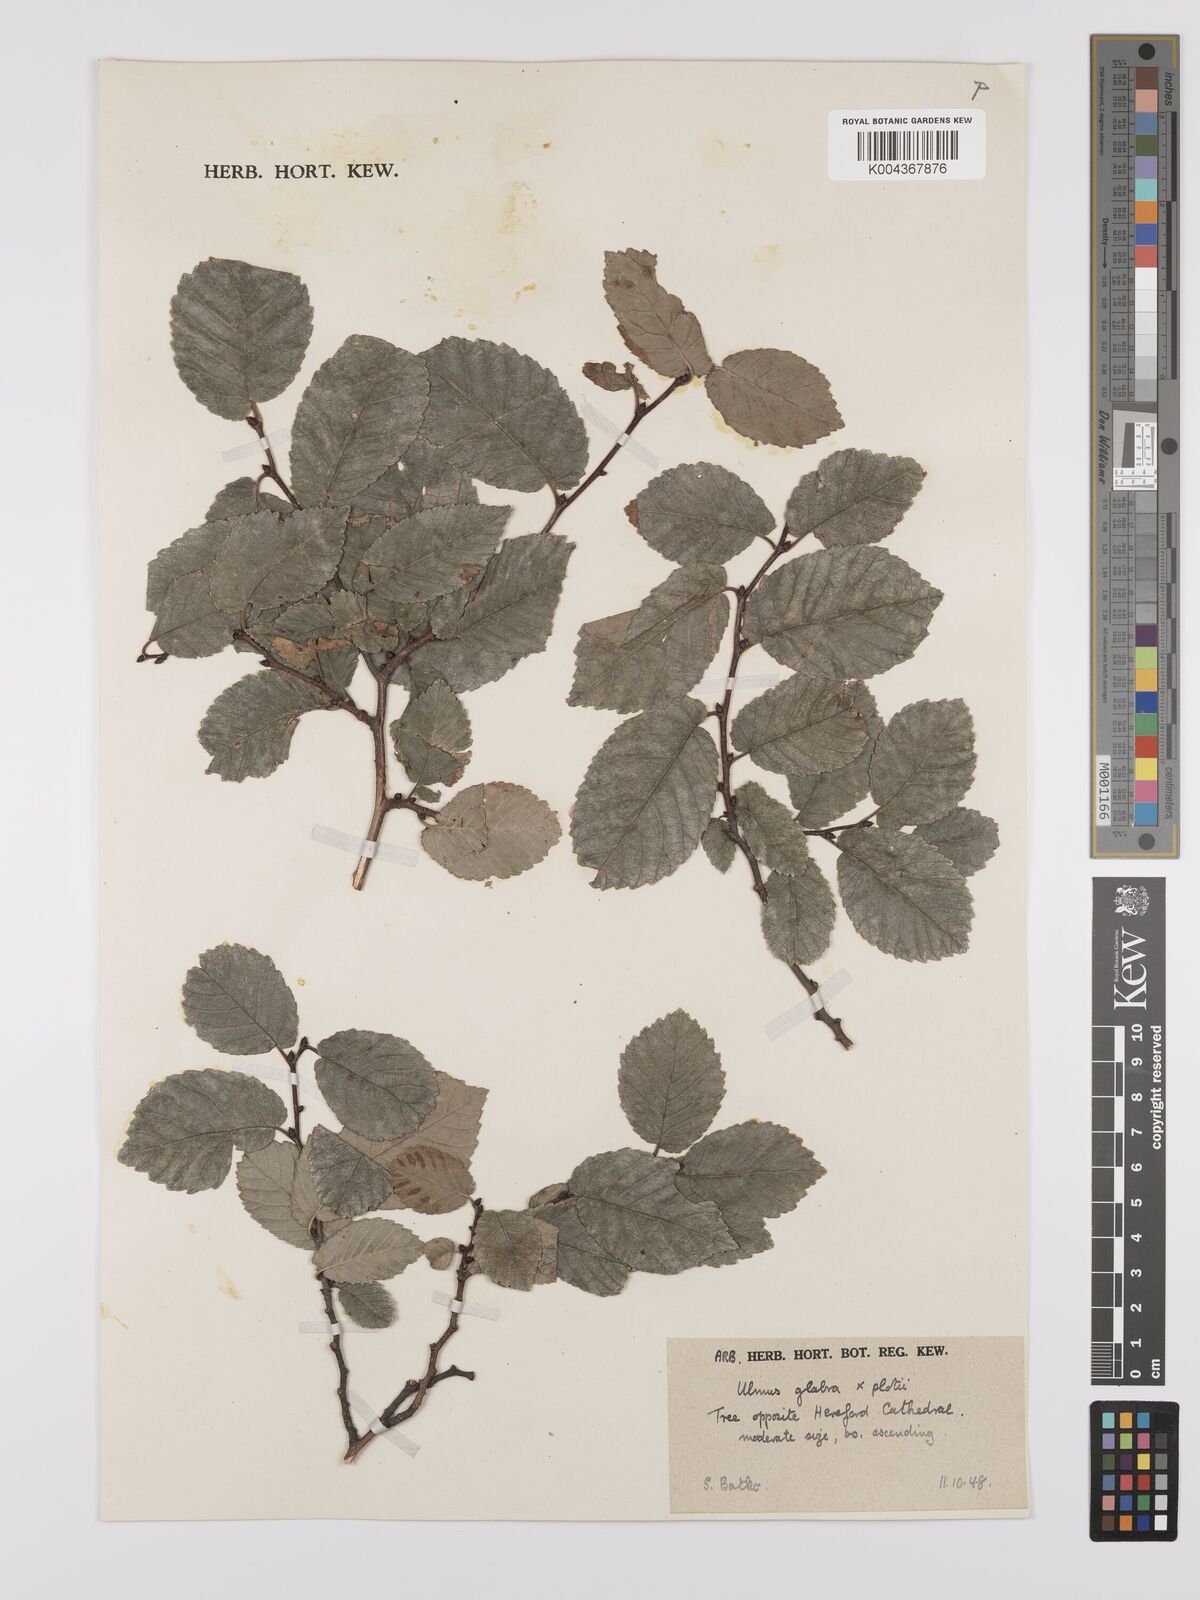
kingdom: Plantae
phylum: Tracheophyta
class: Magnoliopsida
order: Rosales
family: Ulmaceae
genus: Ulmus
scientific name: Ulmus
